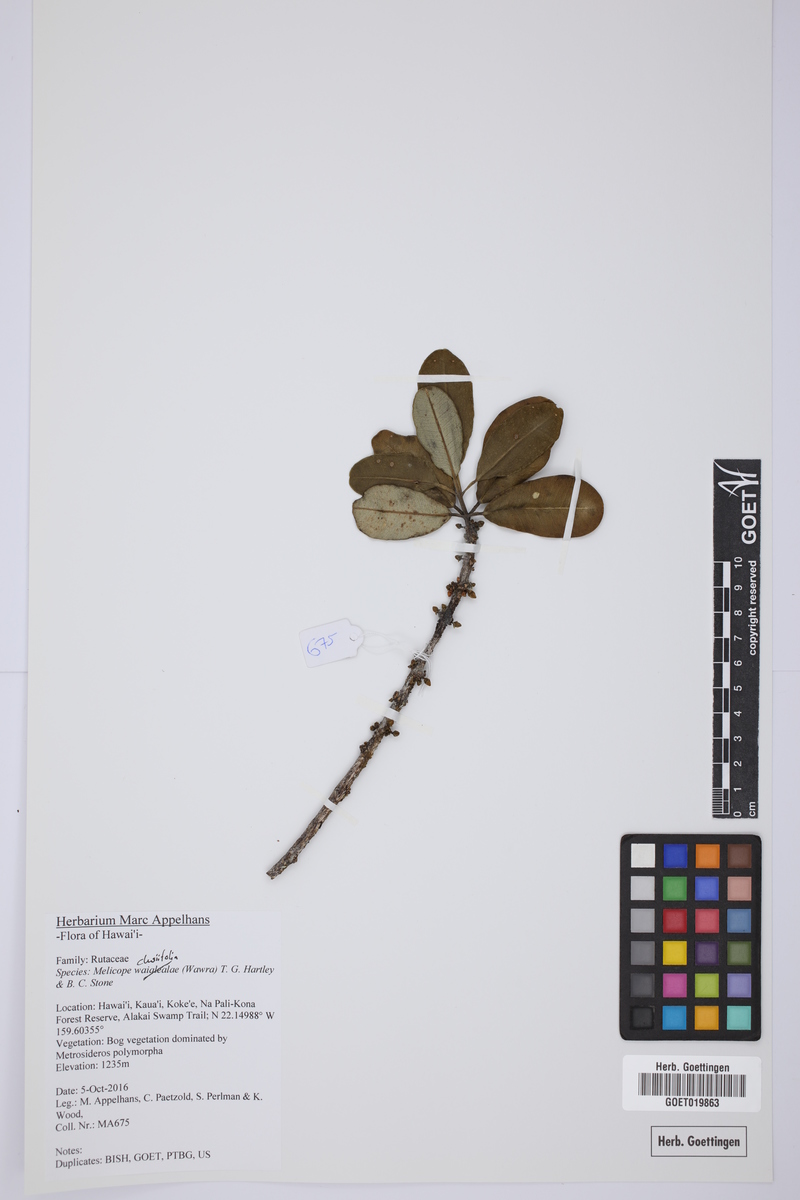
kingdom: Plantae
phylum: Tracheophyta
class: Magnoliopsida
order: Sapindales
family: Rutaceae
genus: Melicope
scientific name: Melicope clusiifolia
